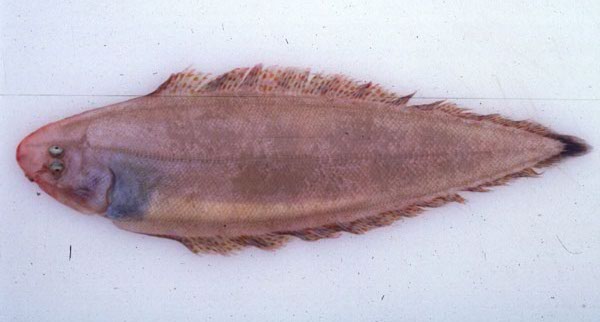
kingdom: Animalia
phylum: Chordata
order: Pleuronectiformes
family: Cynoglossidae
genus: Cynoglossus
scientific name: Cynoglossus zanzibarensis
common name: Redspotted tonguesole
